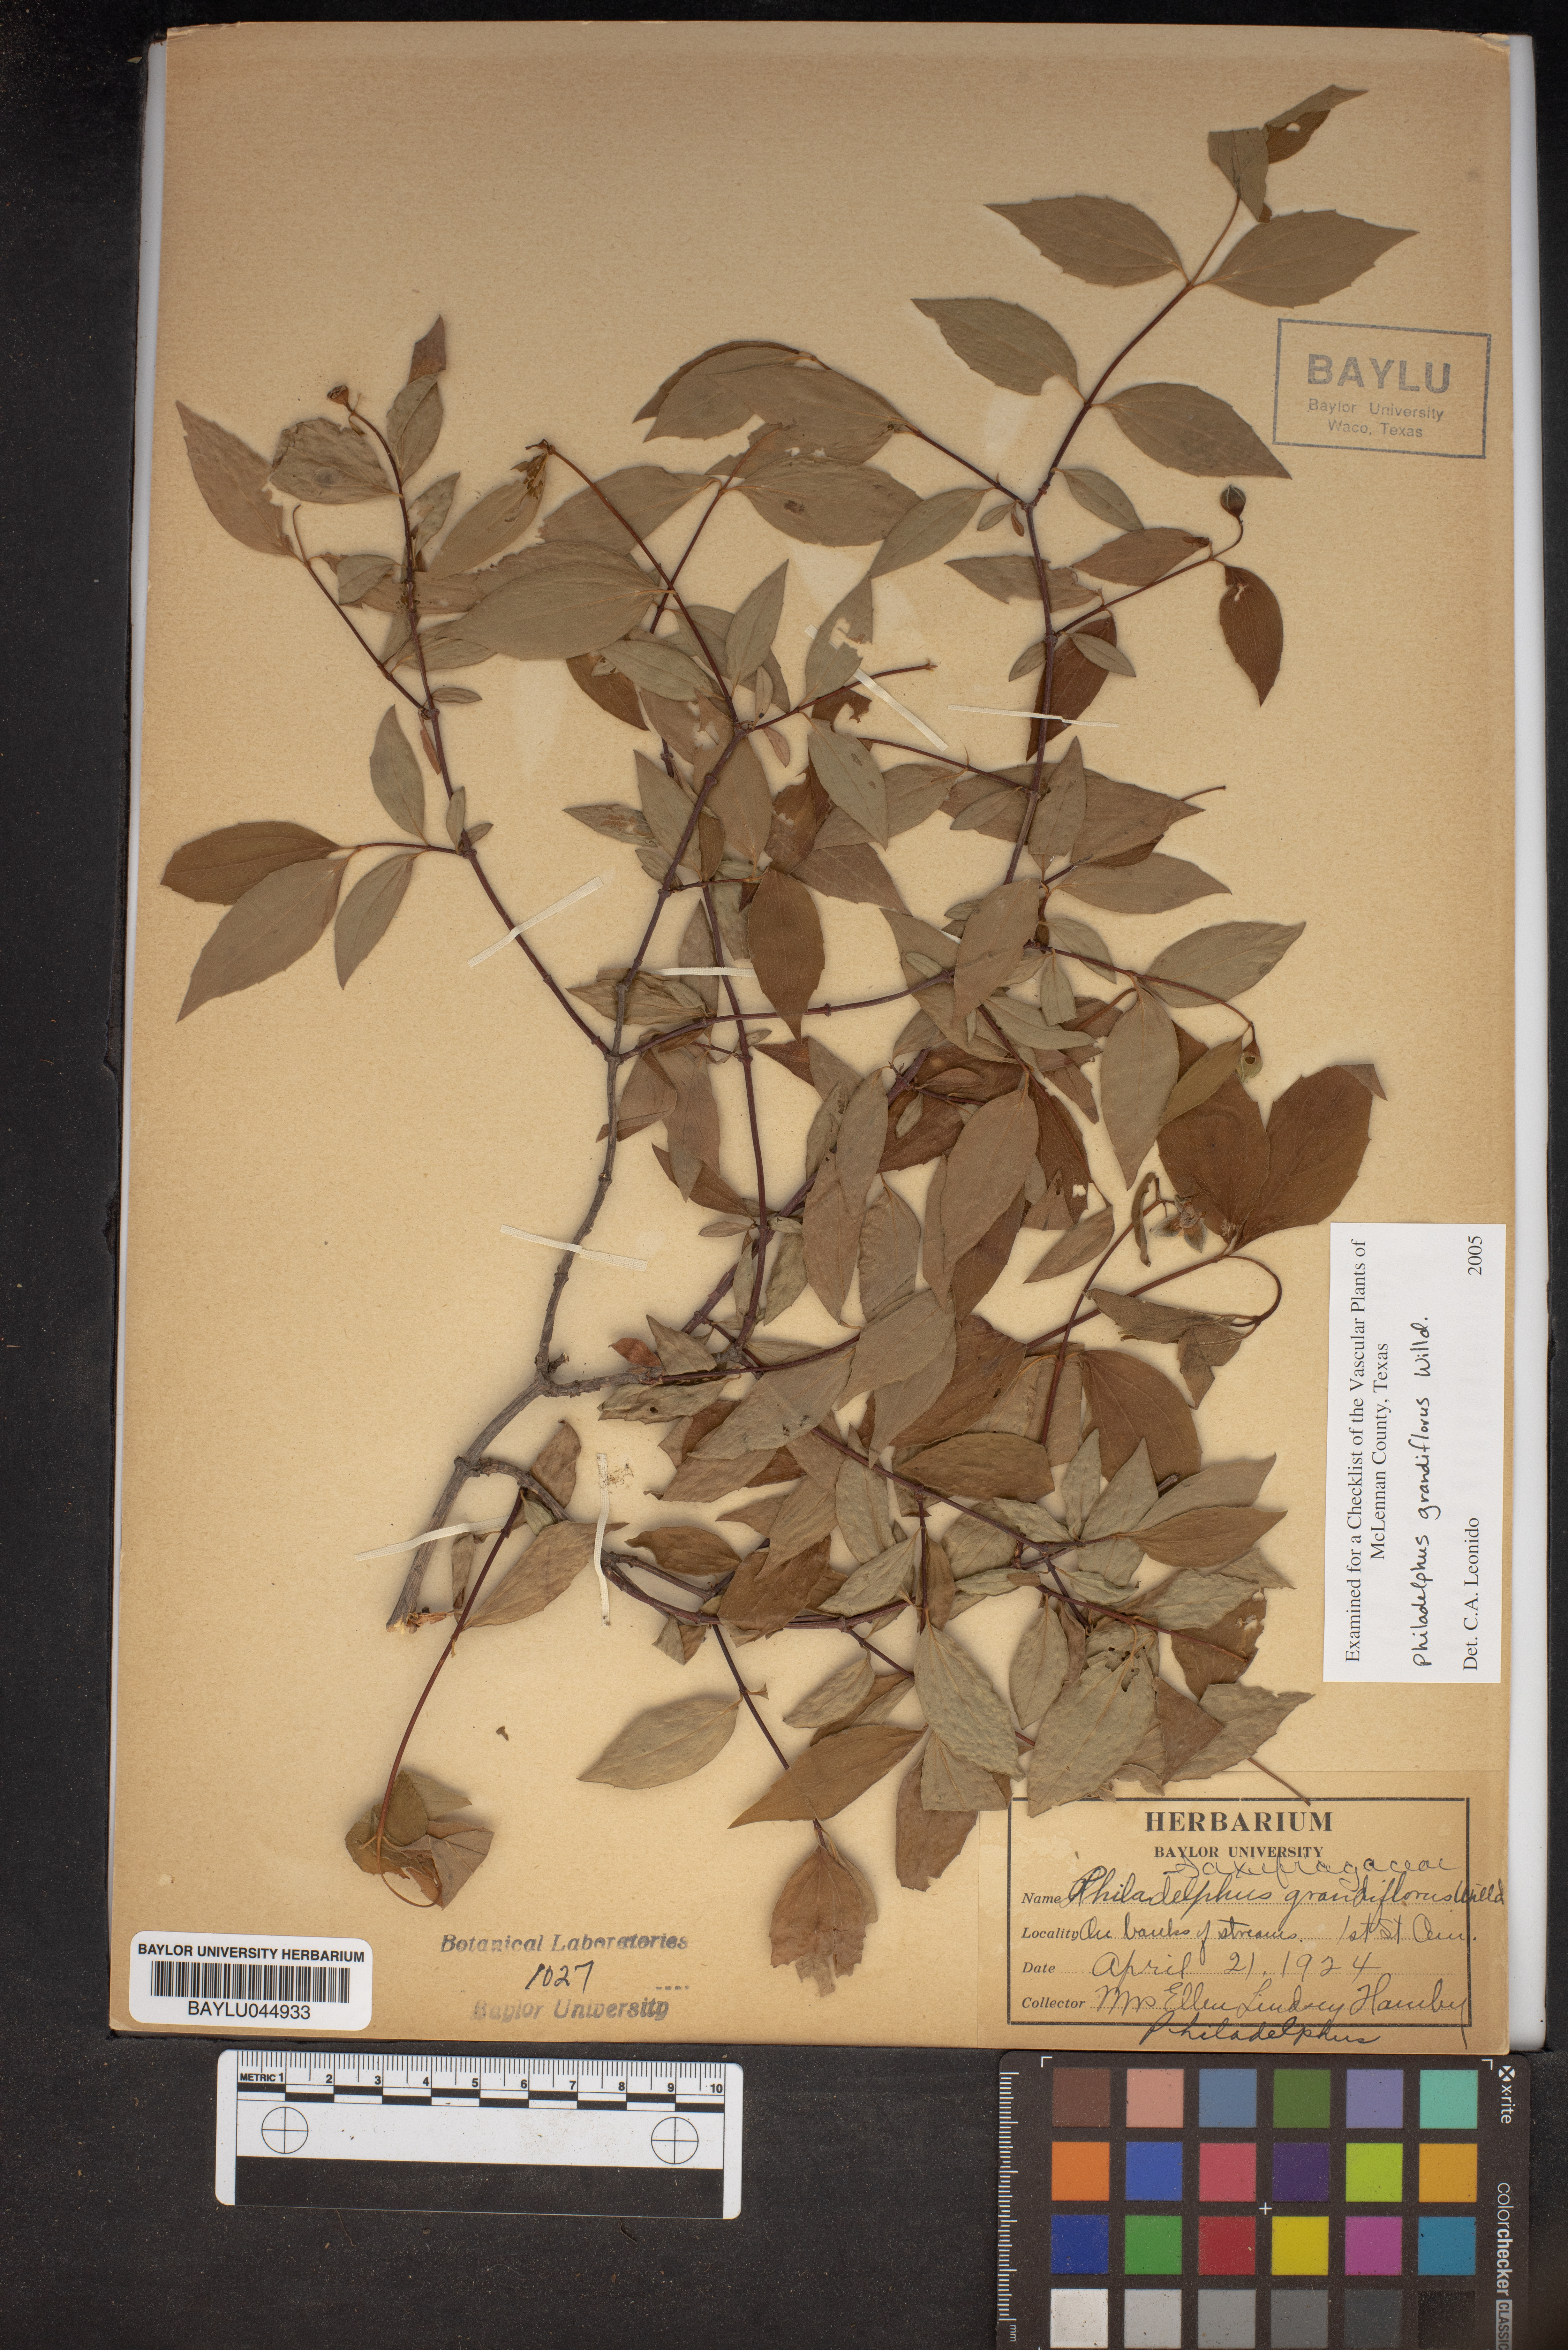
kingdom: Plantae
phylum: Tracheophyta
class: Magnoliopsida
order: Cornales
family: Hydrangeaceae
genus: Philadelphus
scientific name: Philadelphus inodorus
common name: Scentless mock-orange
